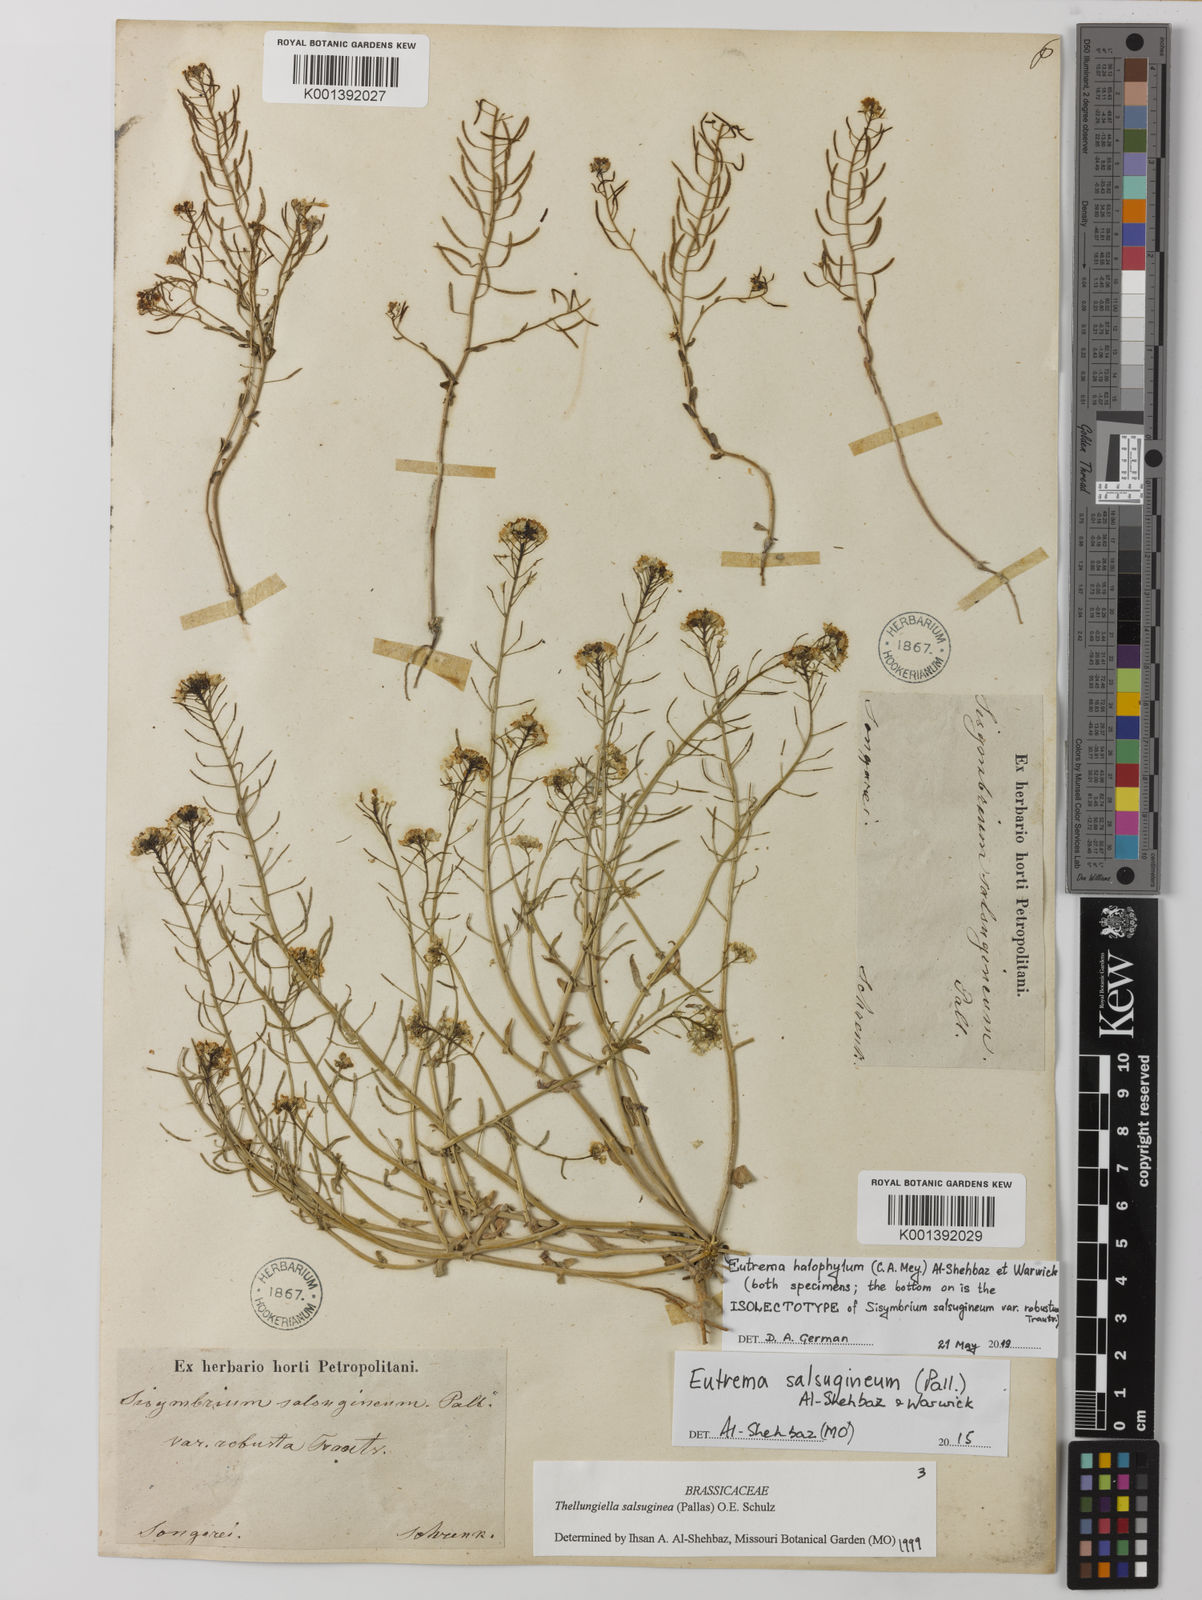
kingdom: Plantae
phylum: Tracheophyta
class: Magnoliopsida
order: Brassicales
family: Brassicaceae
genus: Eutrema
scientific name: Eutrema halophilum
